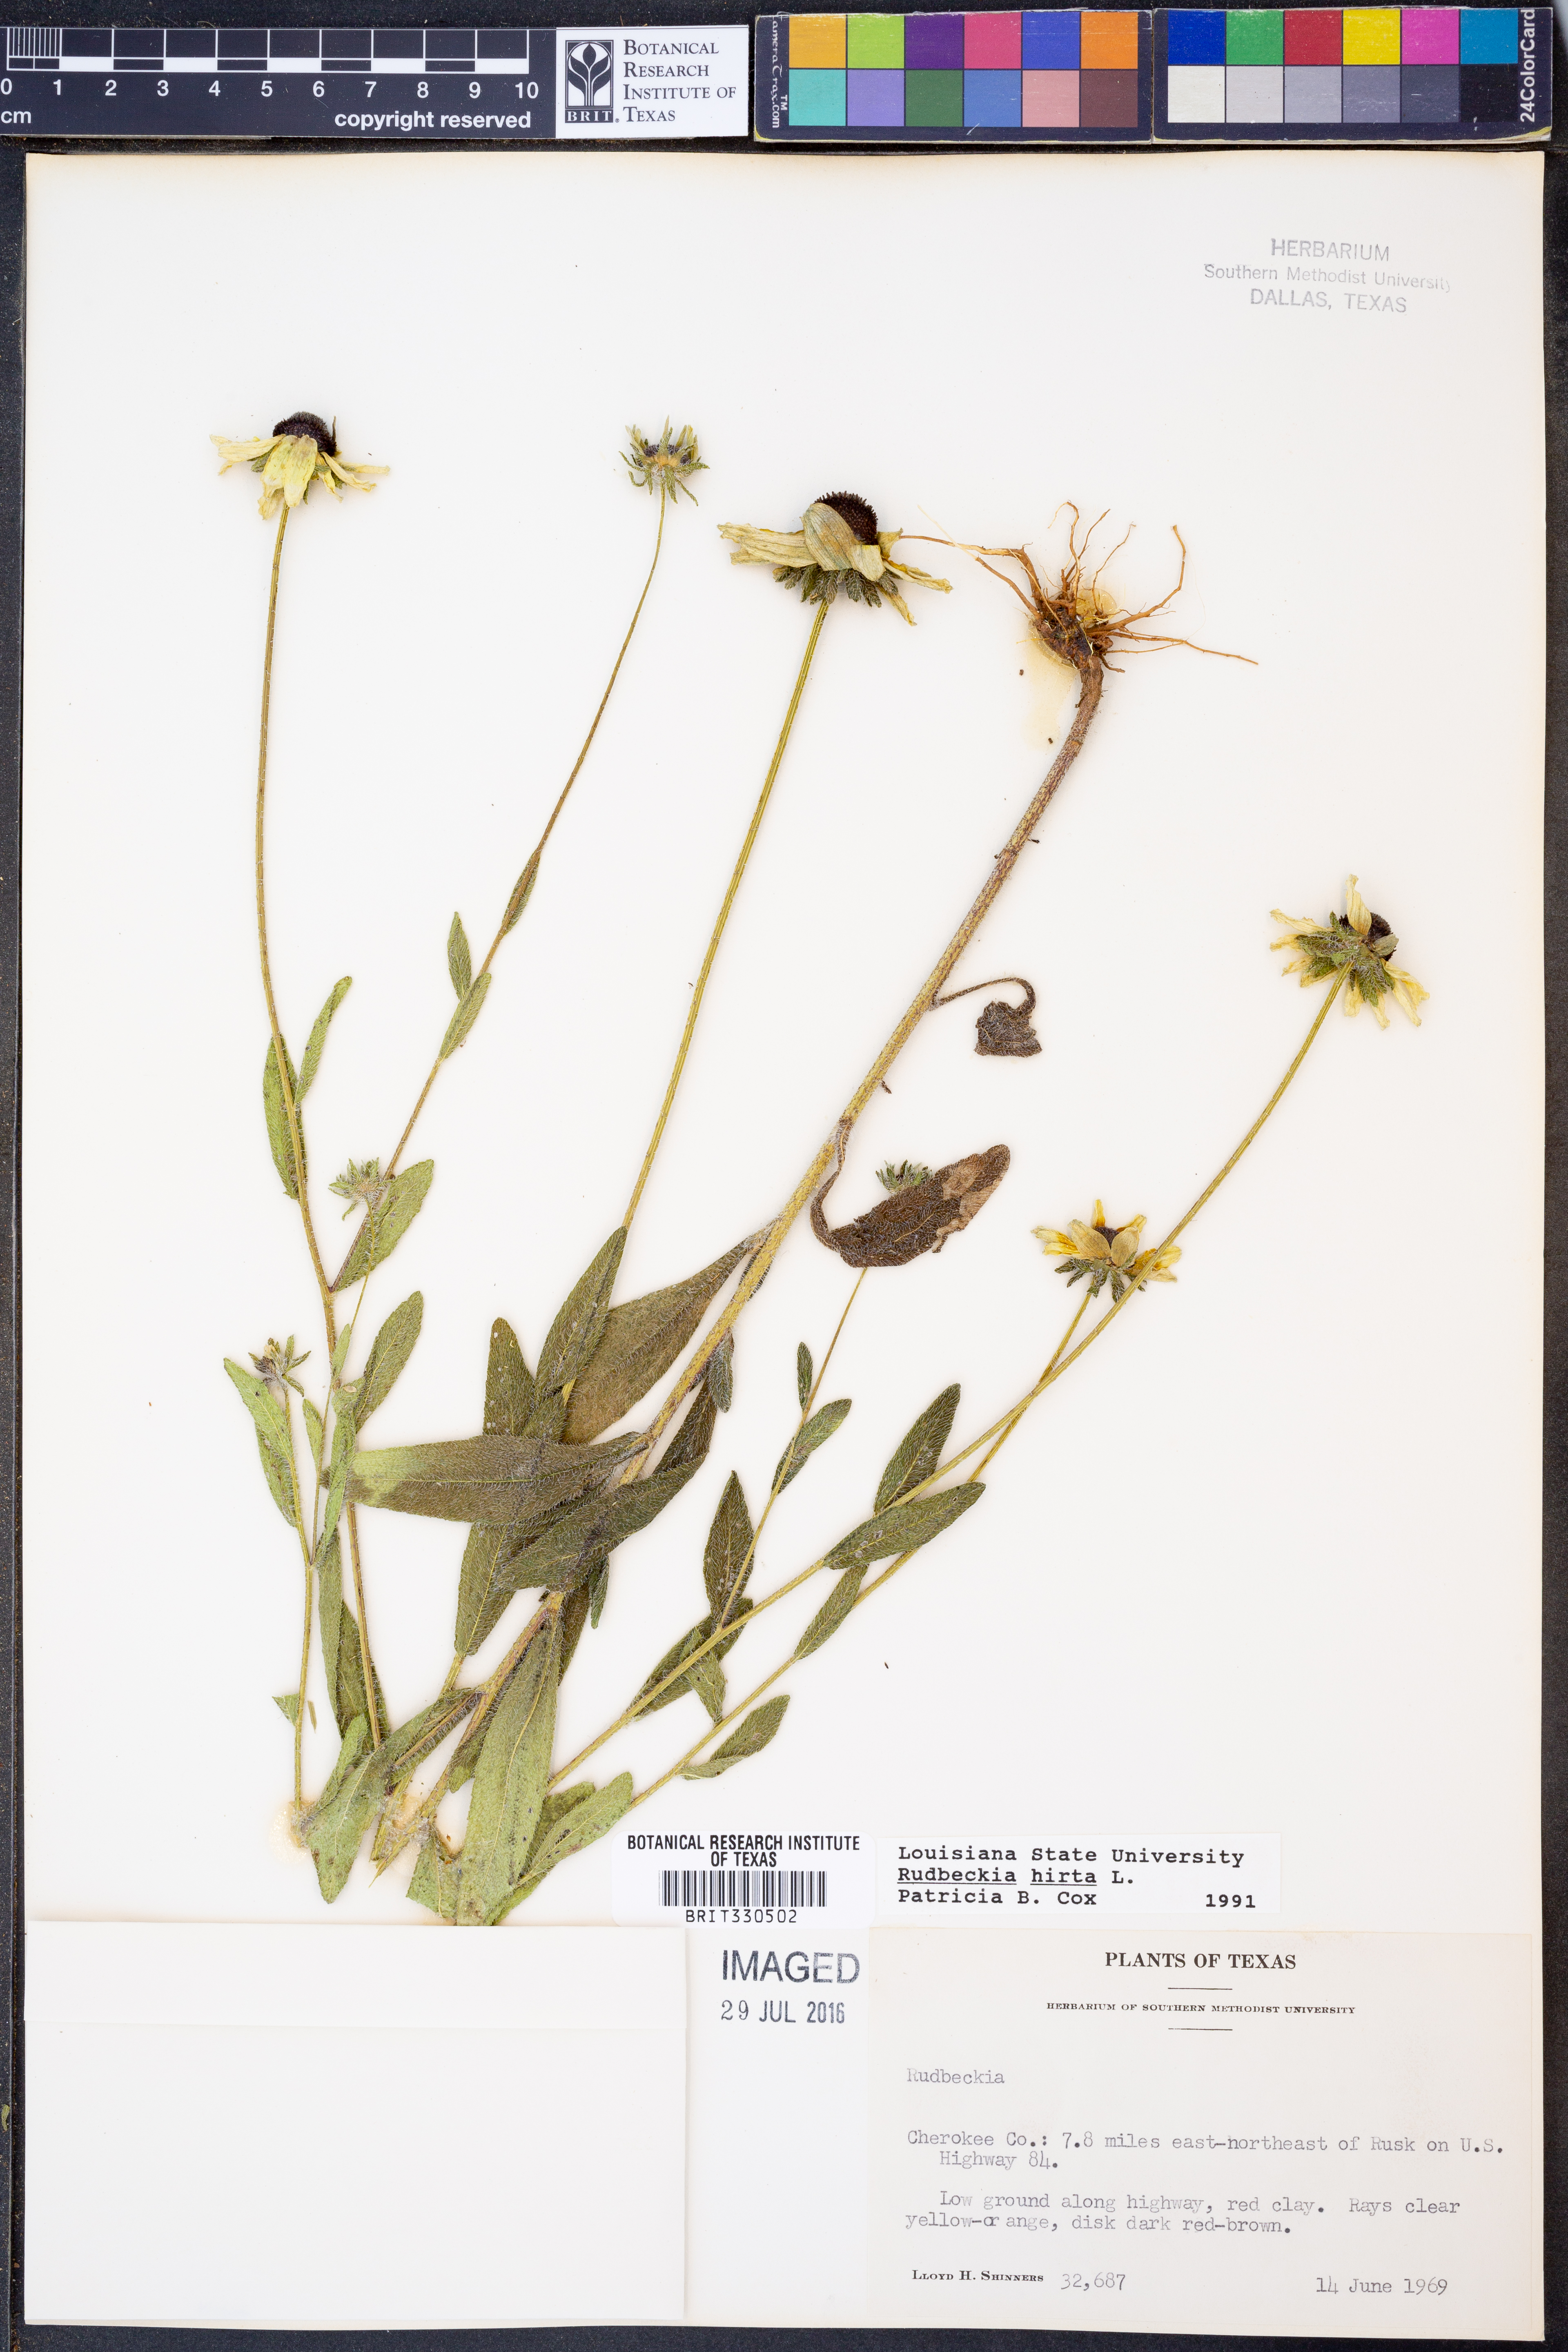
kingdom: Plantae
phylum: Tracheophyta
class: Magnoliopsida
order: Asterales
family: Asteraceae
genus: Rudbeckia
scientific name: Rudbeckia hirta
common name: Black-eyed-susan
